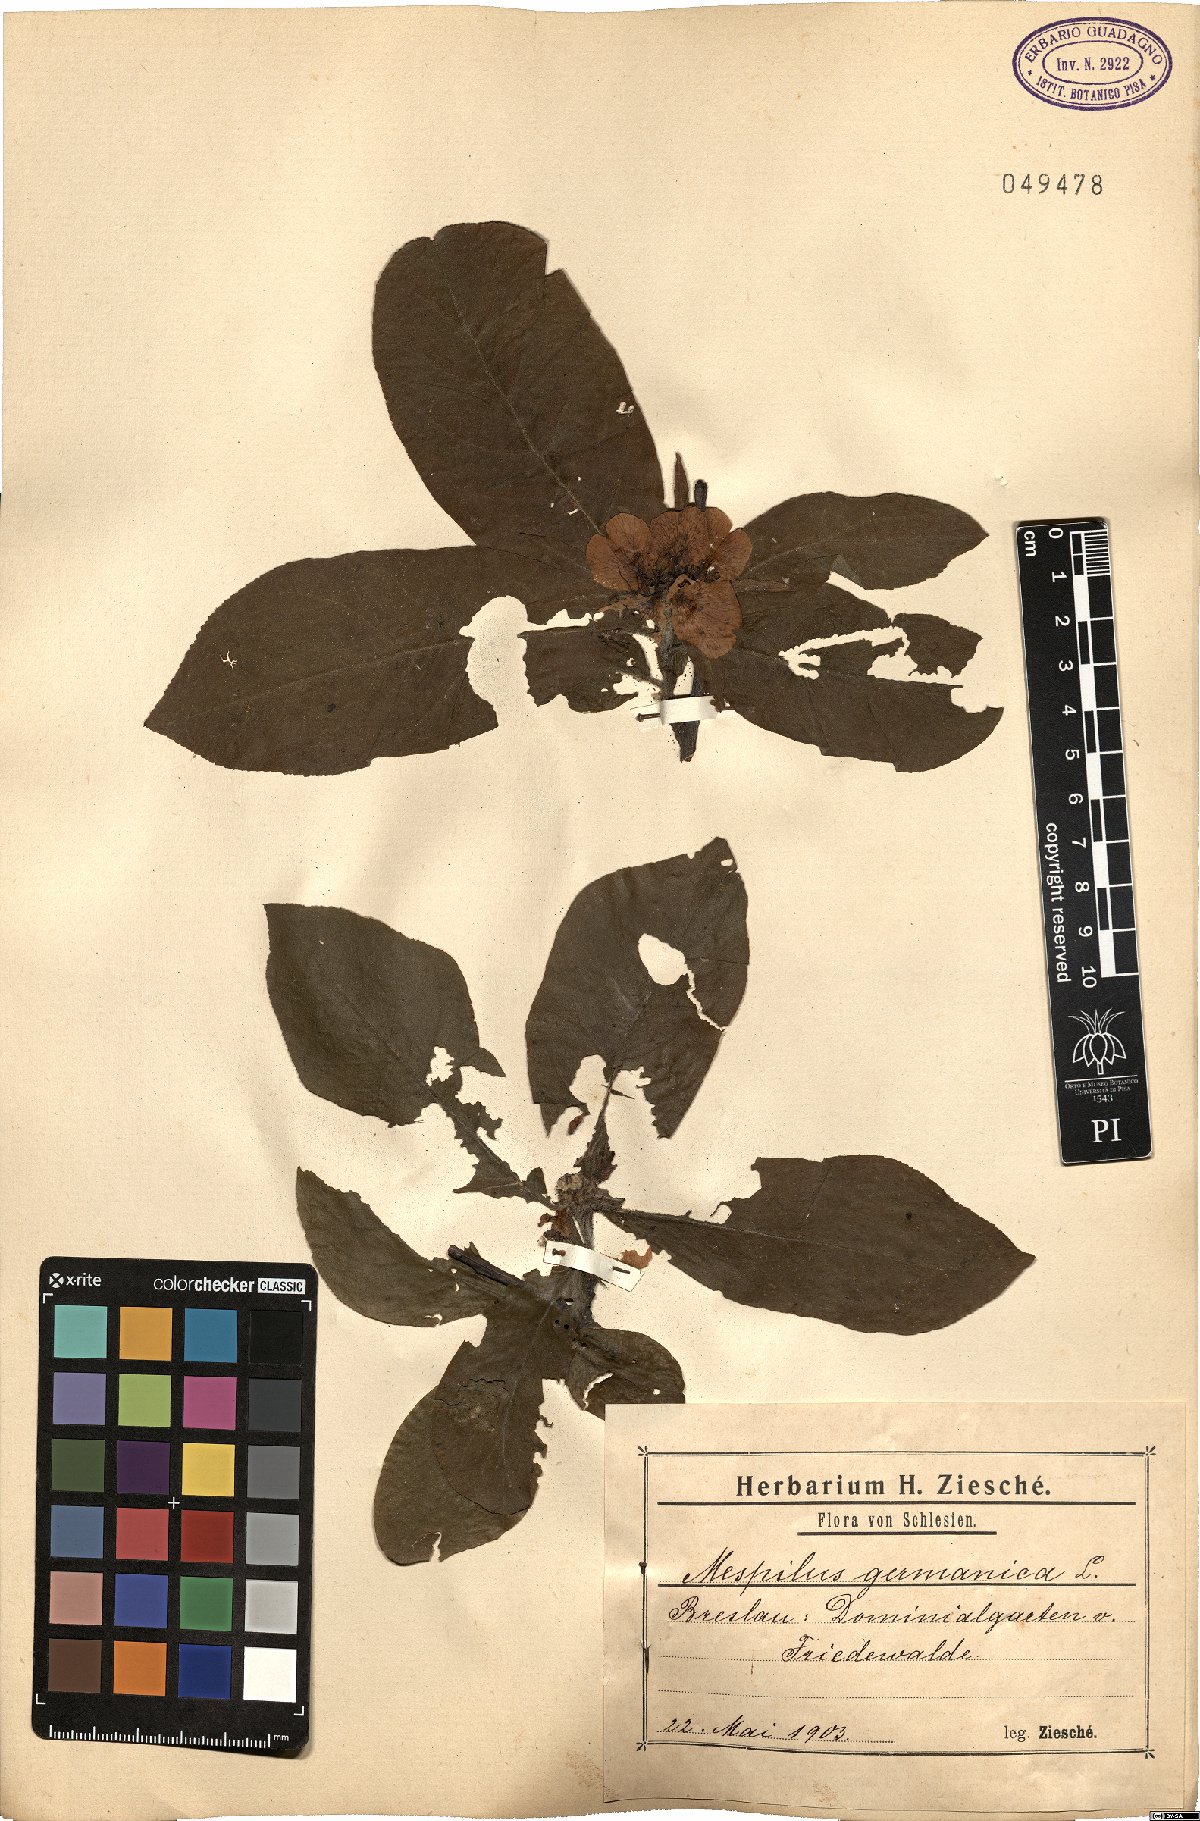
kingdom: Plantae
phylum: Tracheophyta
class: Magnoliopsida
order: Rosales
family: Rosaceae
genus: Mespilus
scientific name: Mespilus germanica
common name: Medlar
